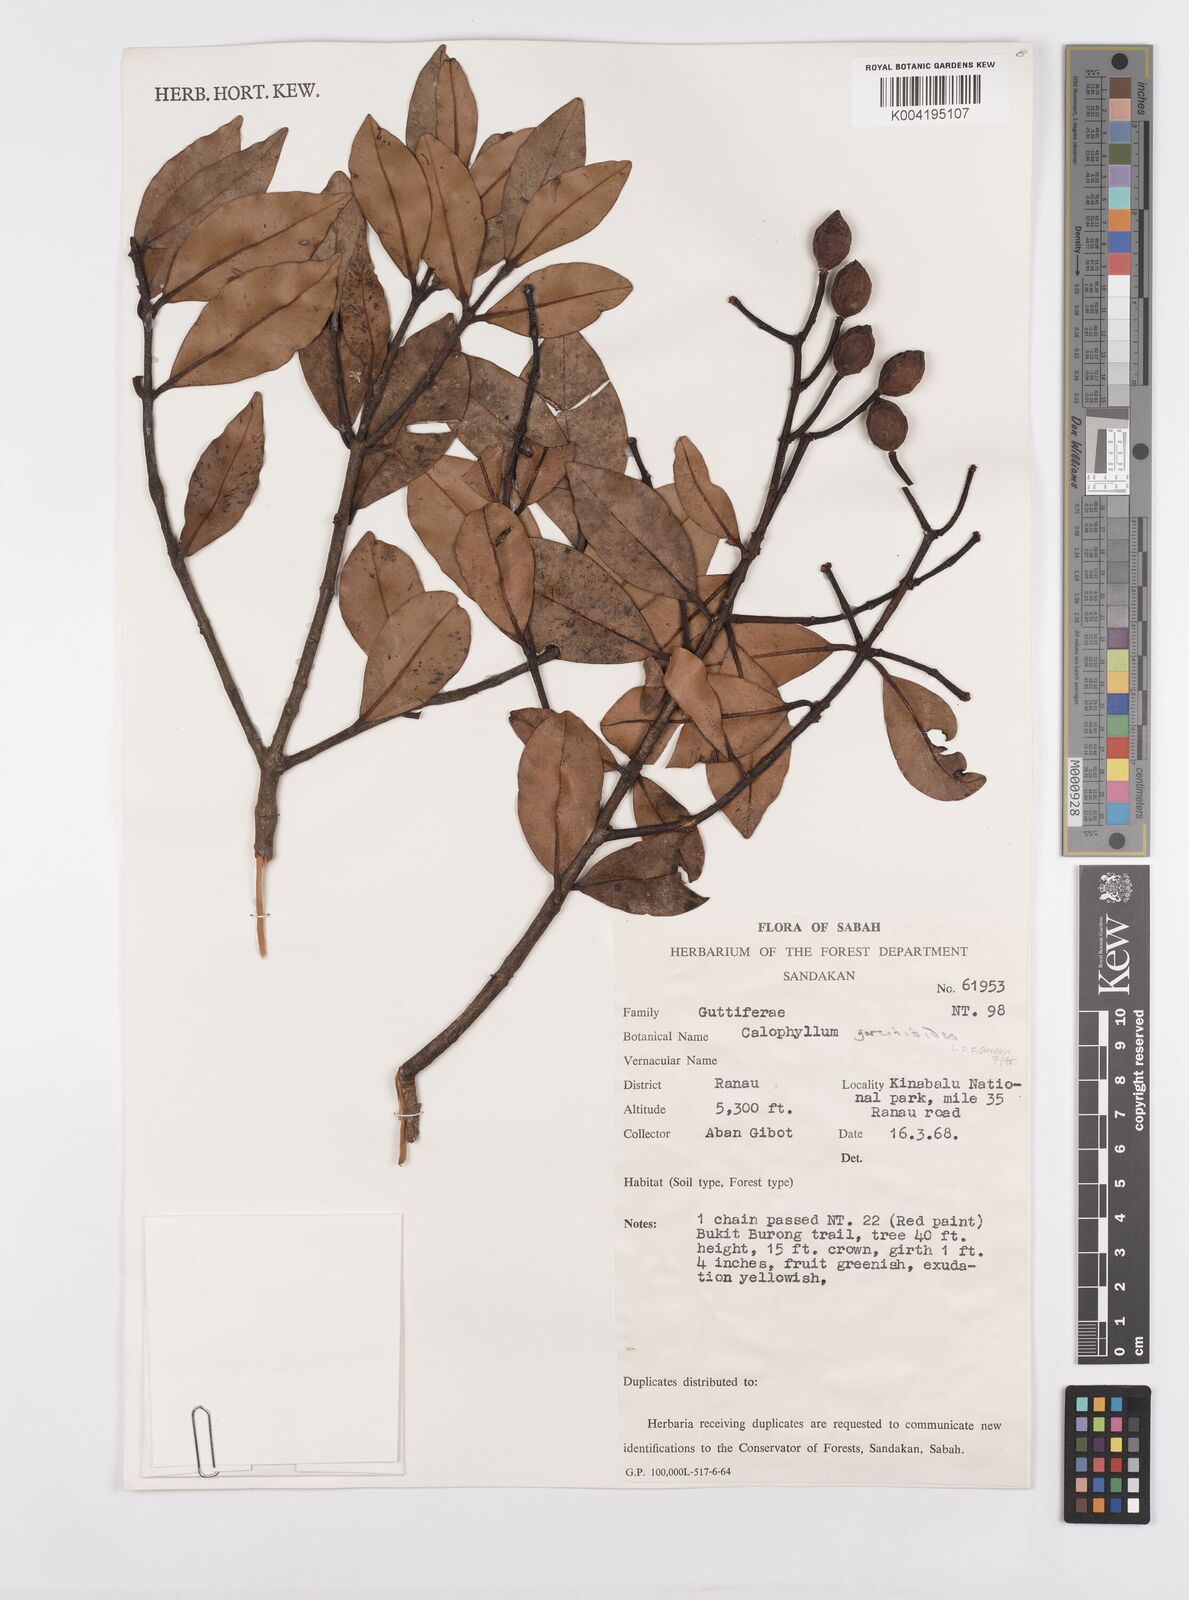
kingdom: Plantae
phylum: Tracheophyta
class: Magnoliopsida
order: Malpighiales
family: Calophyllaceae
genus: Calophyllum
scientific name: Calophyllum garcinioides
